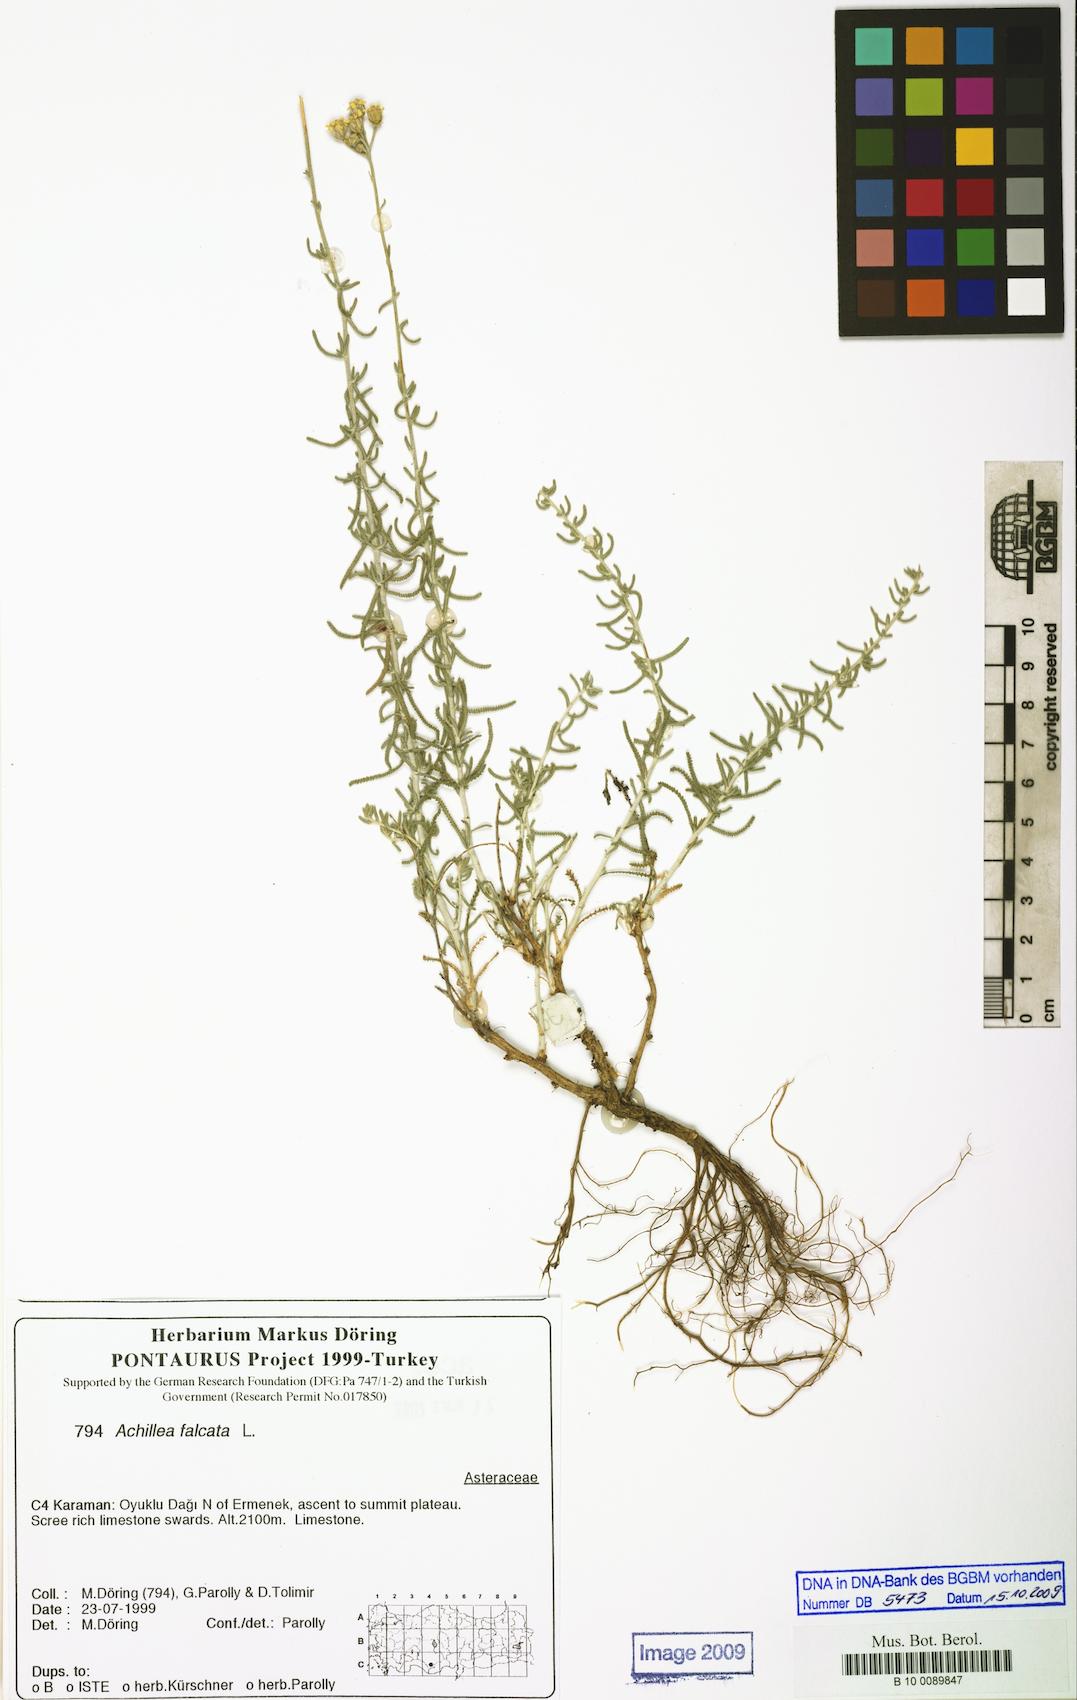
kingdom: Plantae
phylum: Tracheophyta
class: Magnoliopsida
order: Asterales
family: Asteraceae
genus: Achillea
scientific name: Achillea falcata
